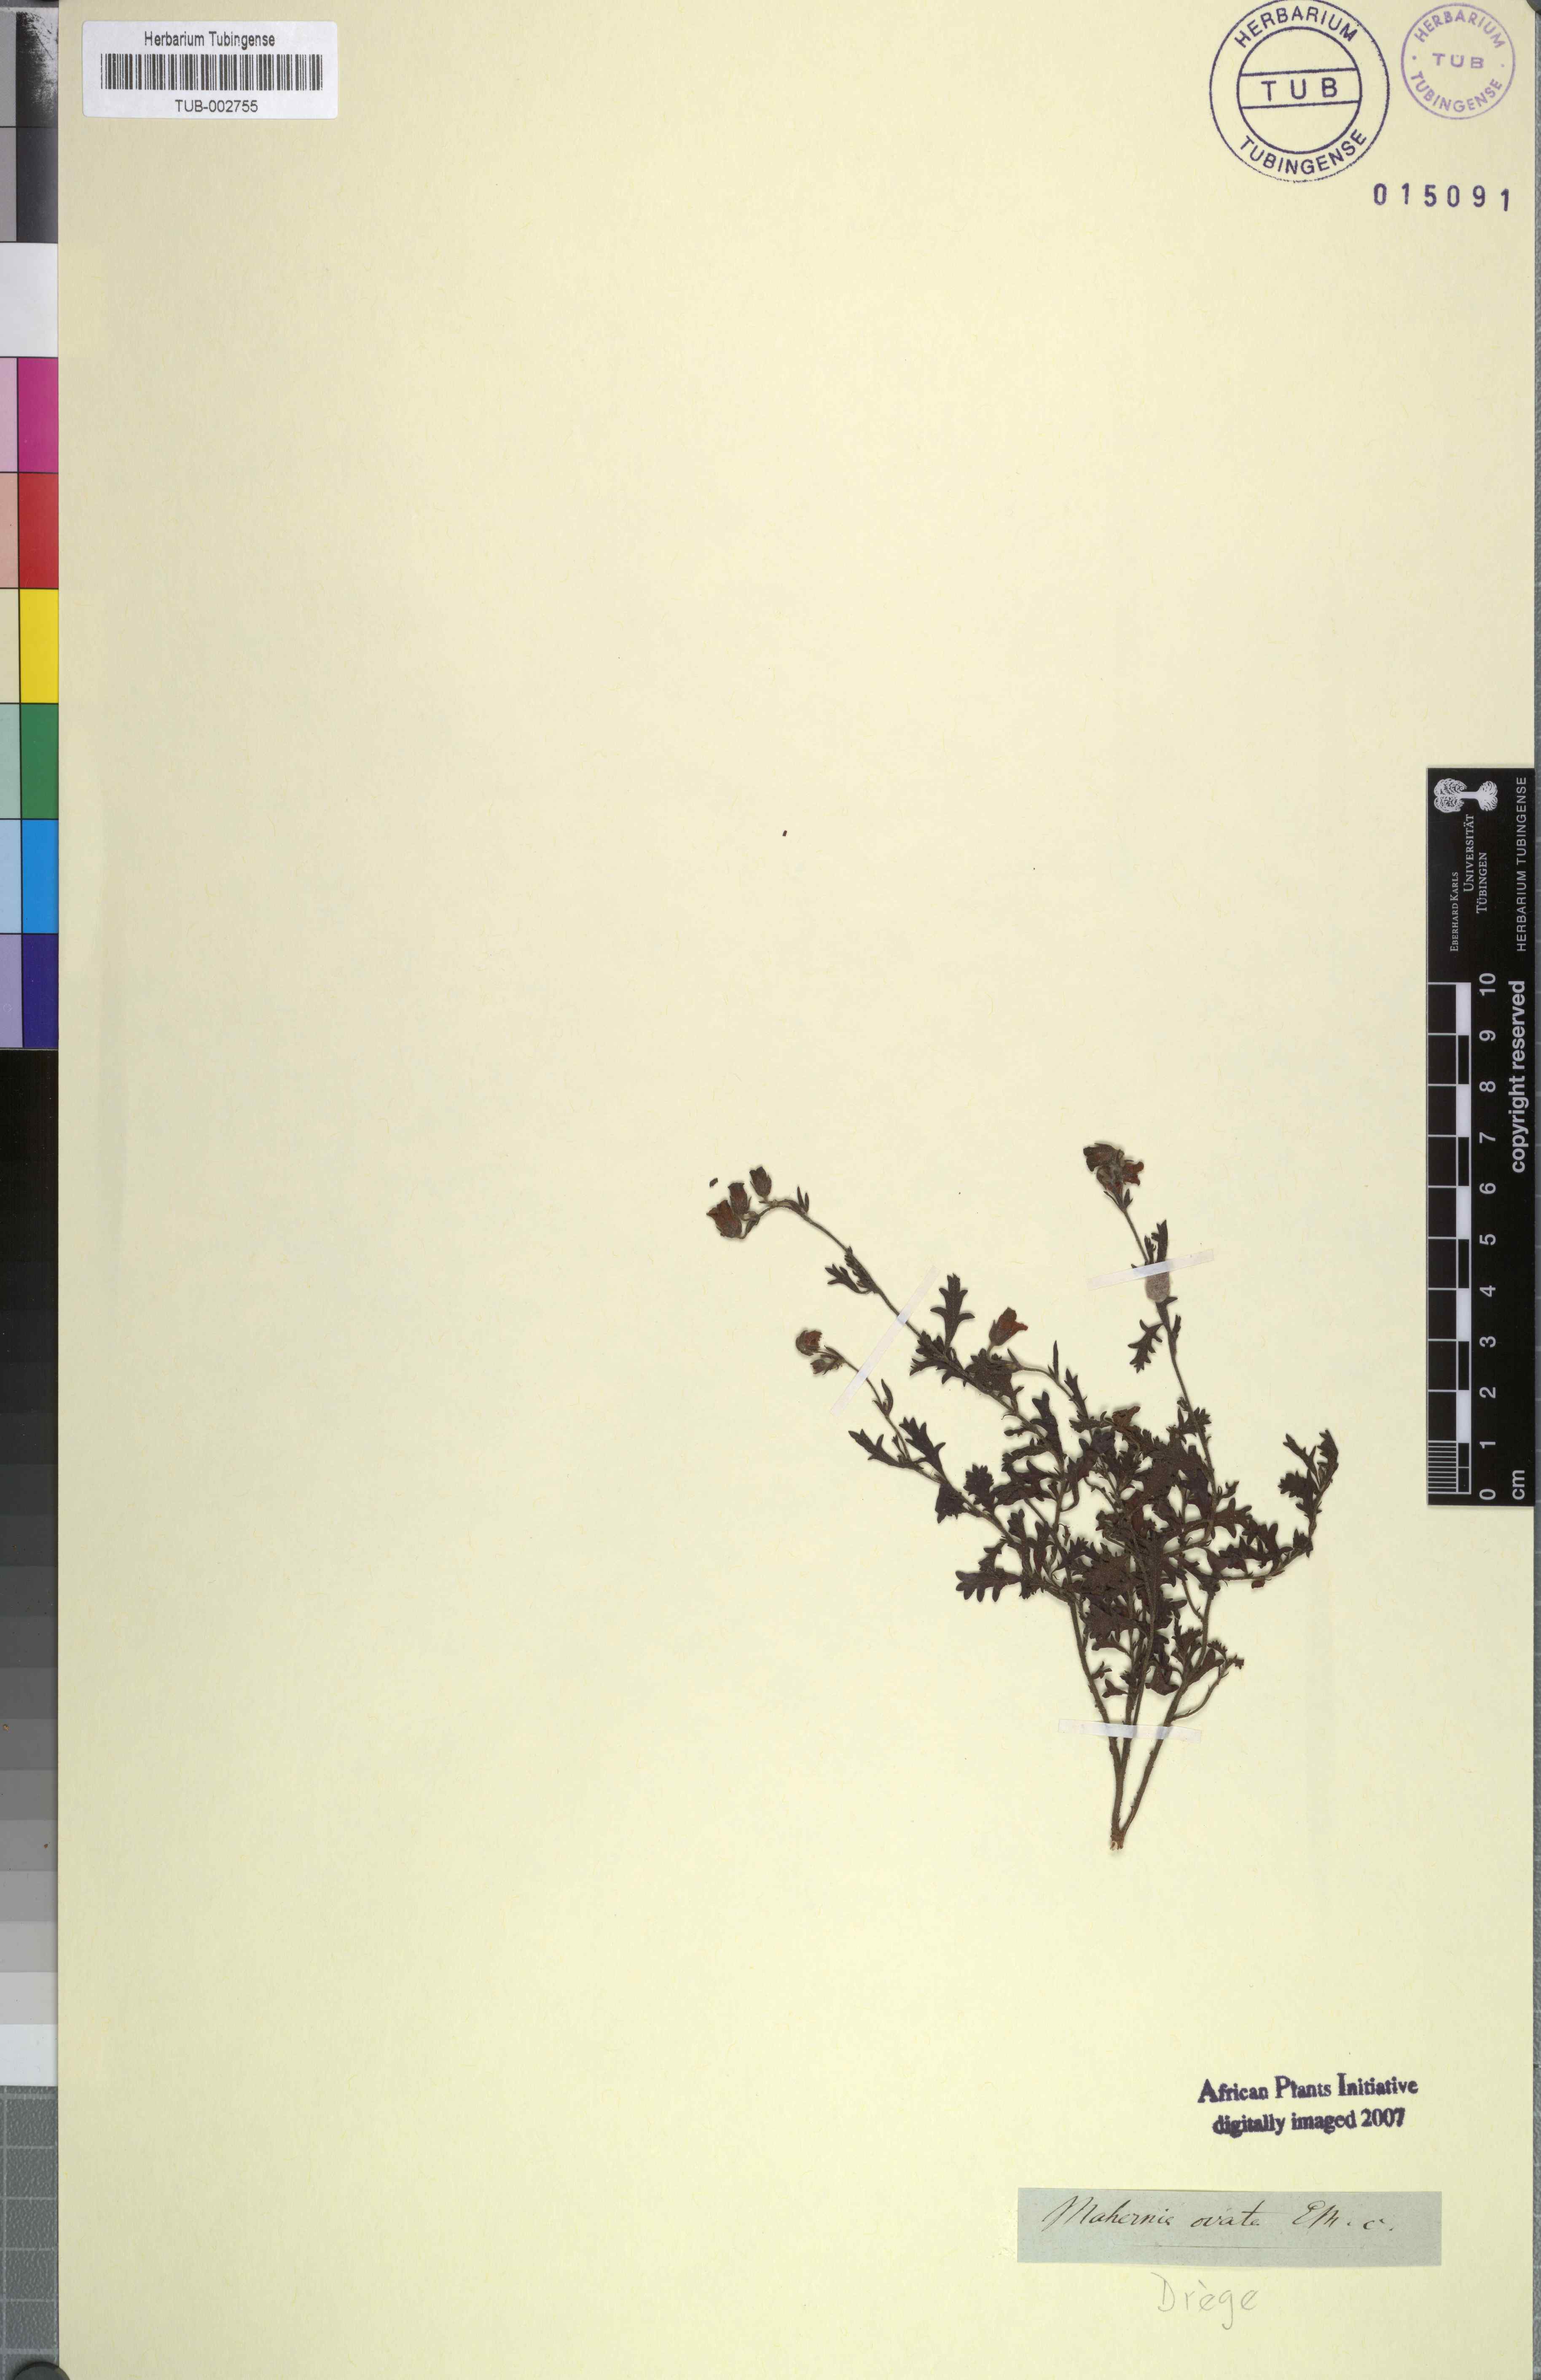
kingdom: Plantae
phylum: Tracheophyta
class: Magnoliopsida
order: Malvales
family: Malvaceae
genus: Hermannia
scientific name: Hermannia grossularifolia
